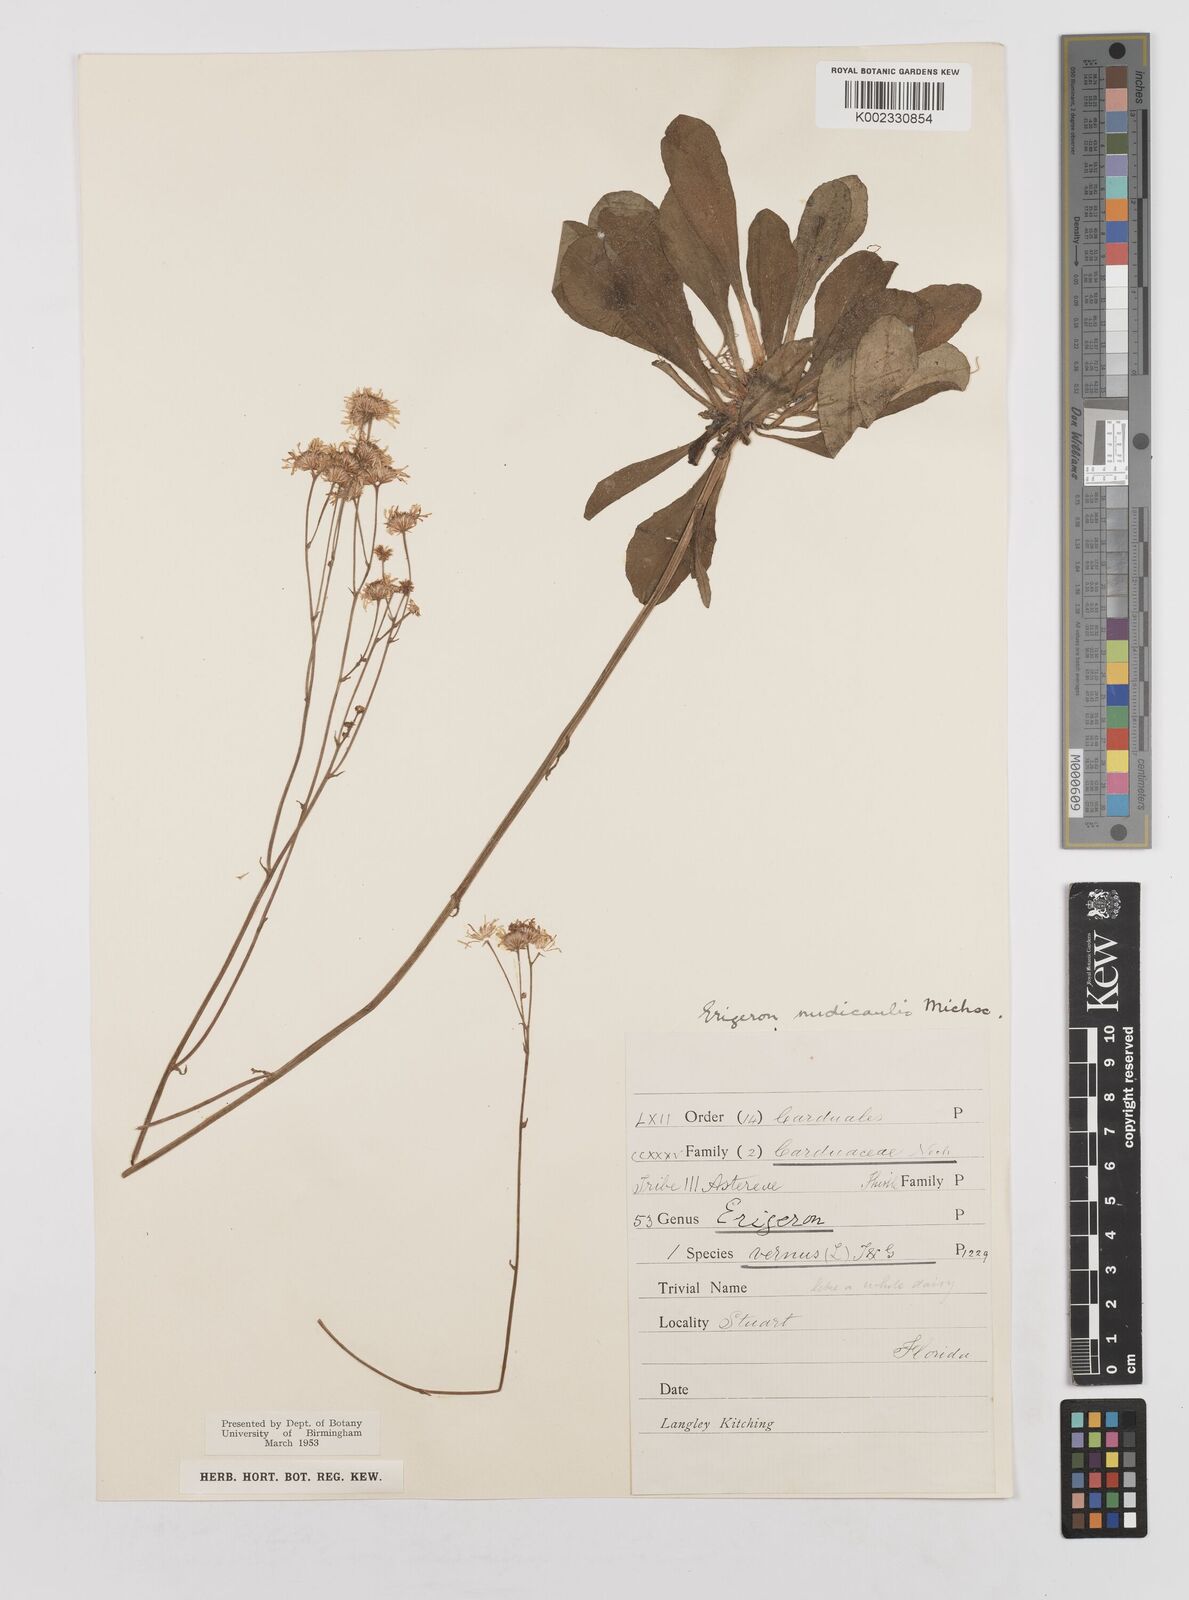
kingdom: Plantae
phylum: Tracheophyta
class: Magnoliopsida
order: Asterales
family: Asteraceae
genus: Erigeron
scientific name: Erigeron vernus
